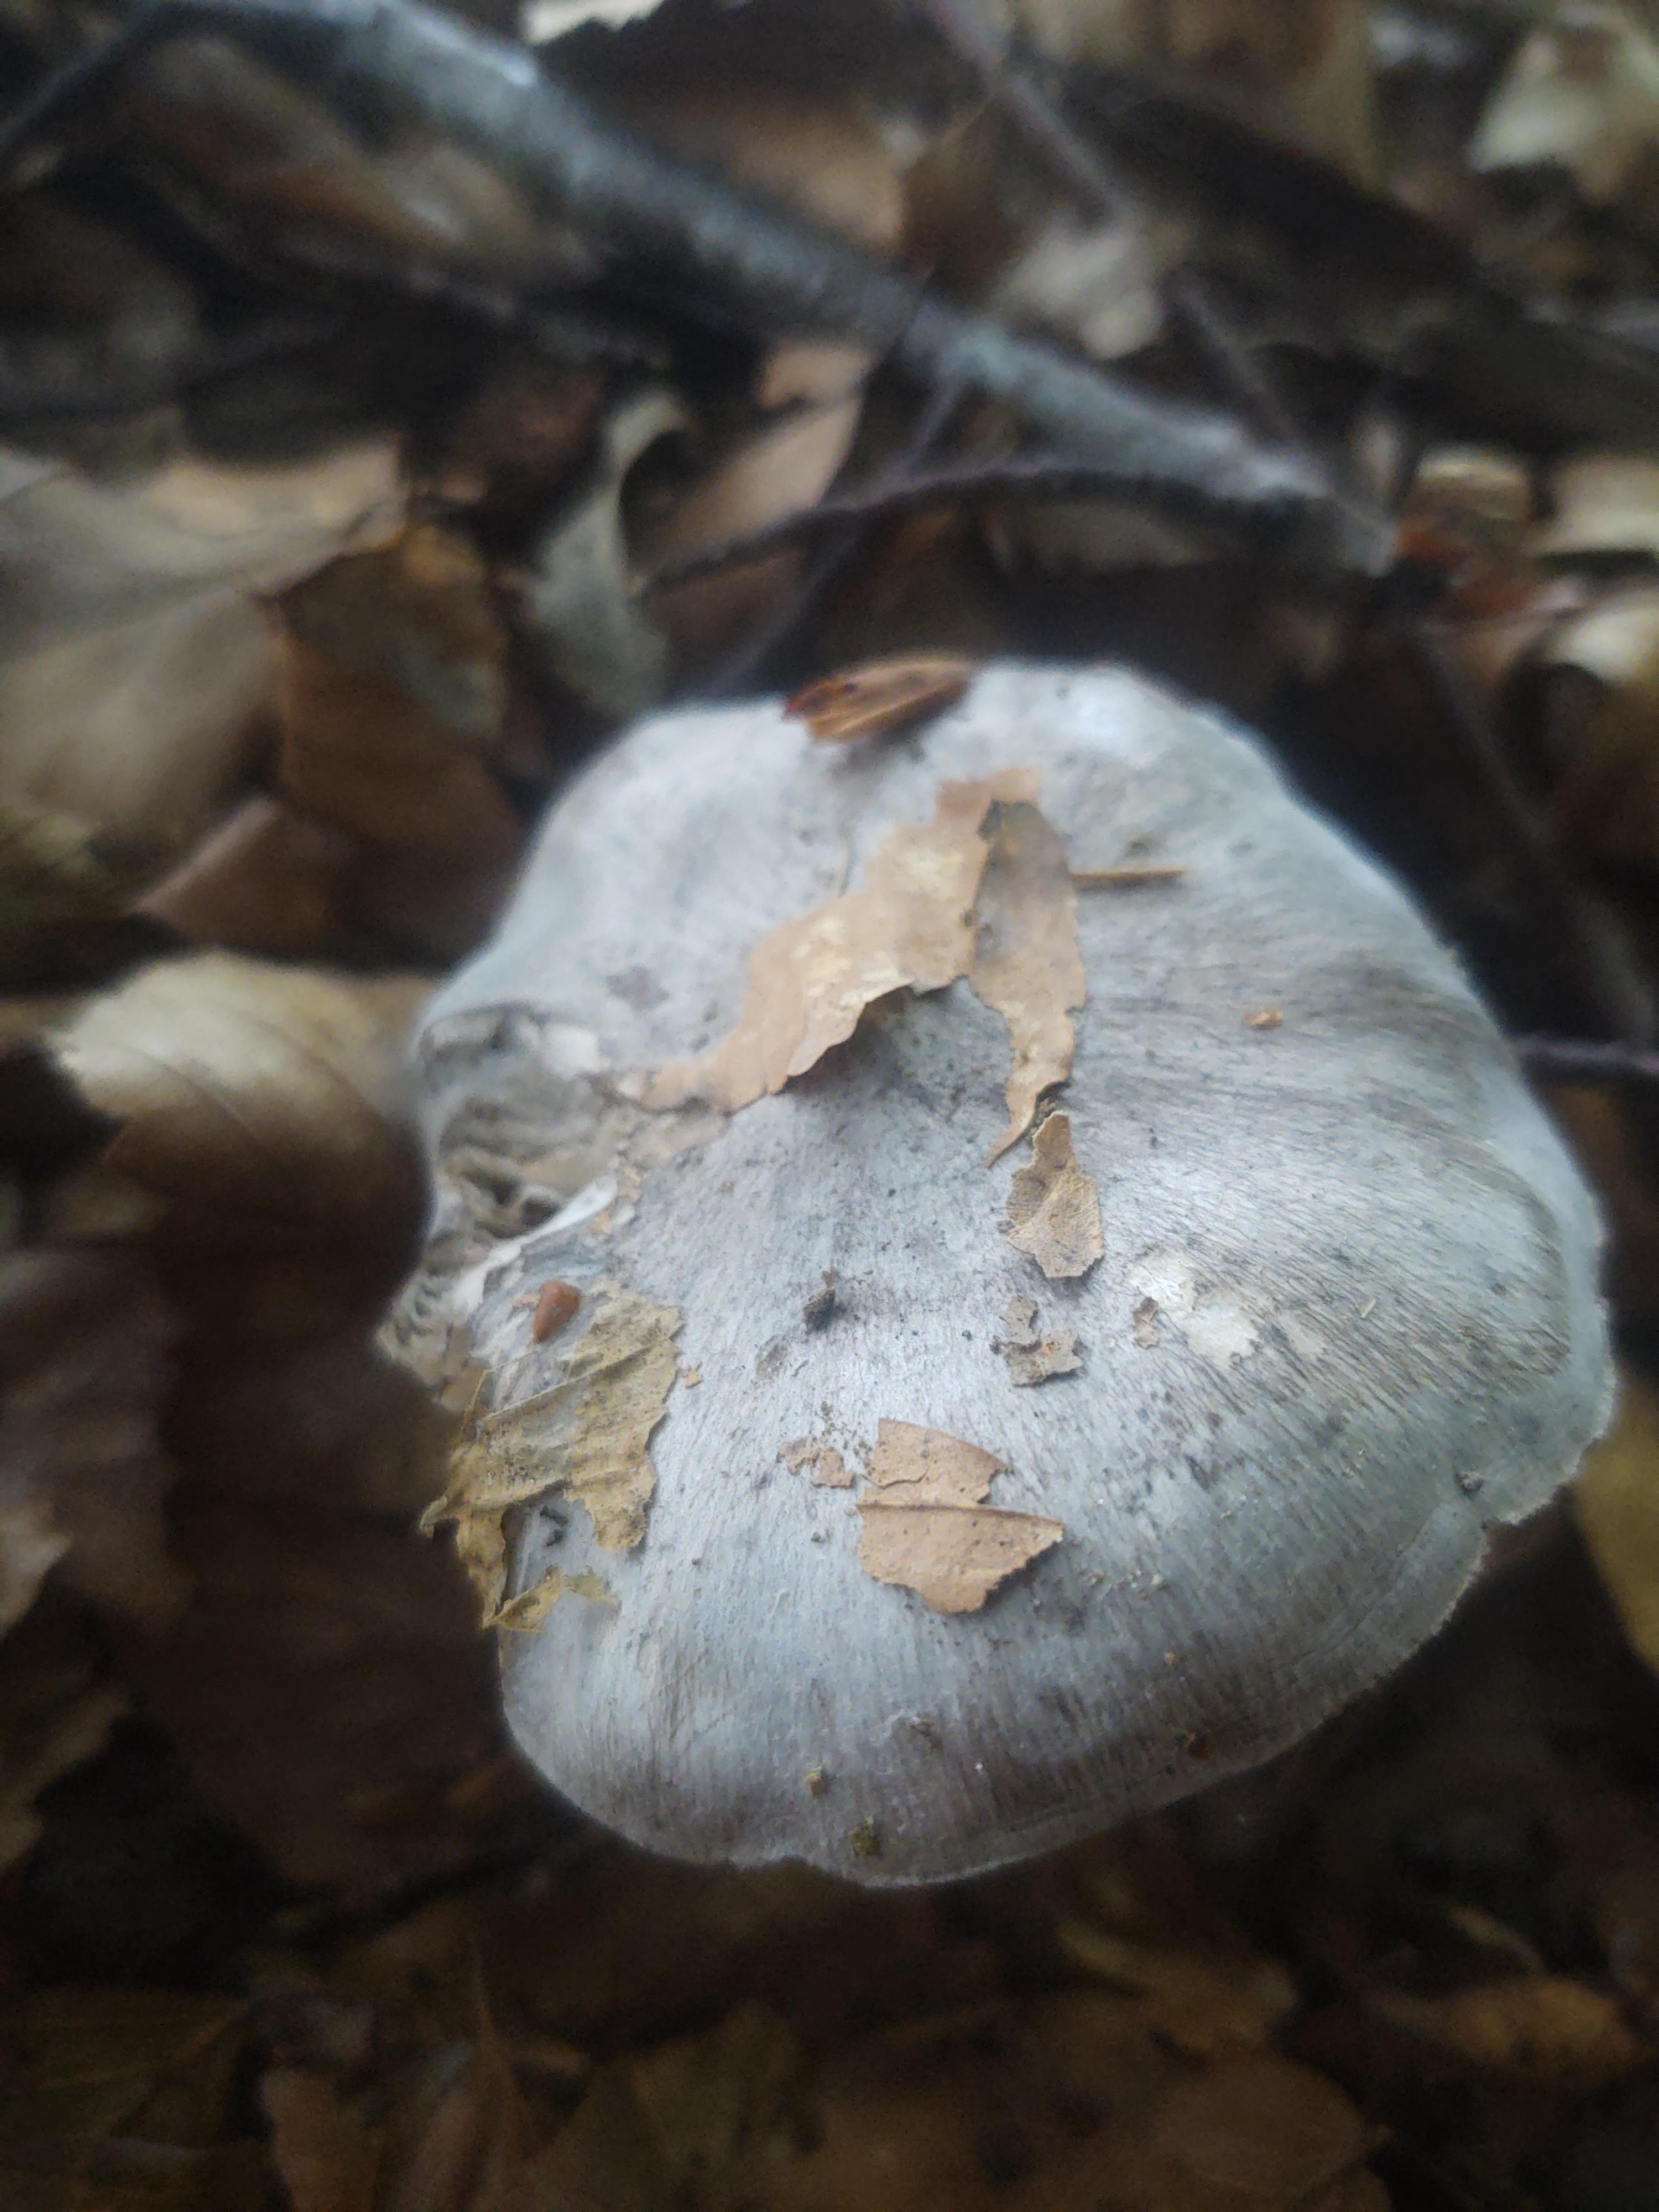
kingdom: Fungi
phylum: Basidiomycota
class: Agaricomycetes
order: Agaricales
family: Tricholomataceae
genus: Tricholoma
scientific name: Tricholoma sciodes
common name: stribet ridderhat
